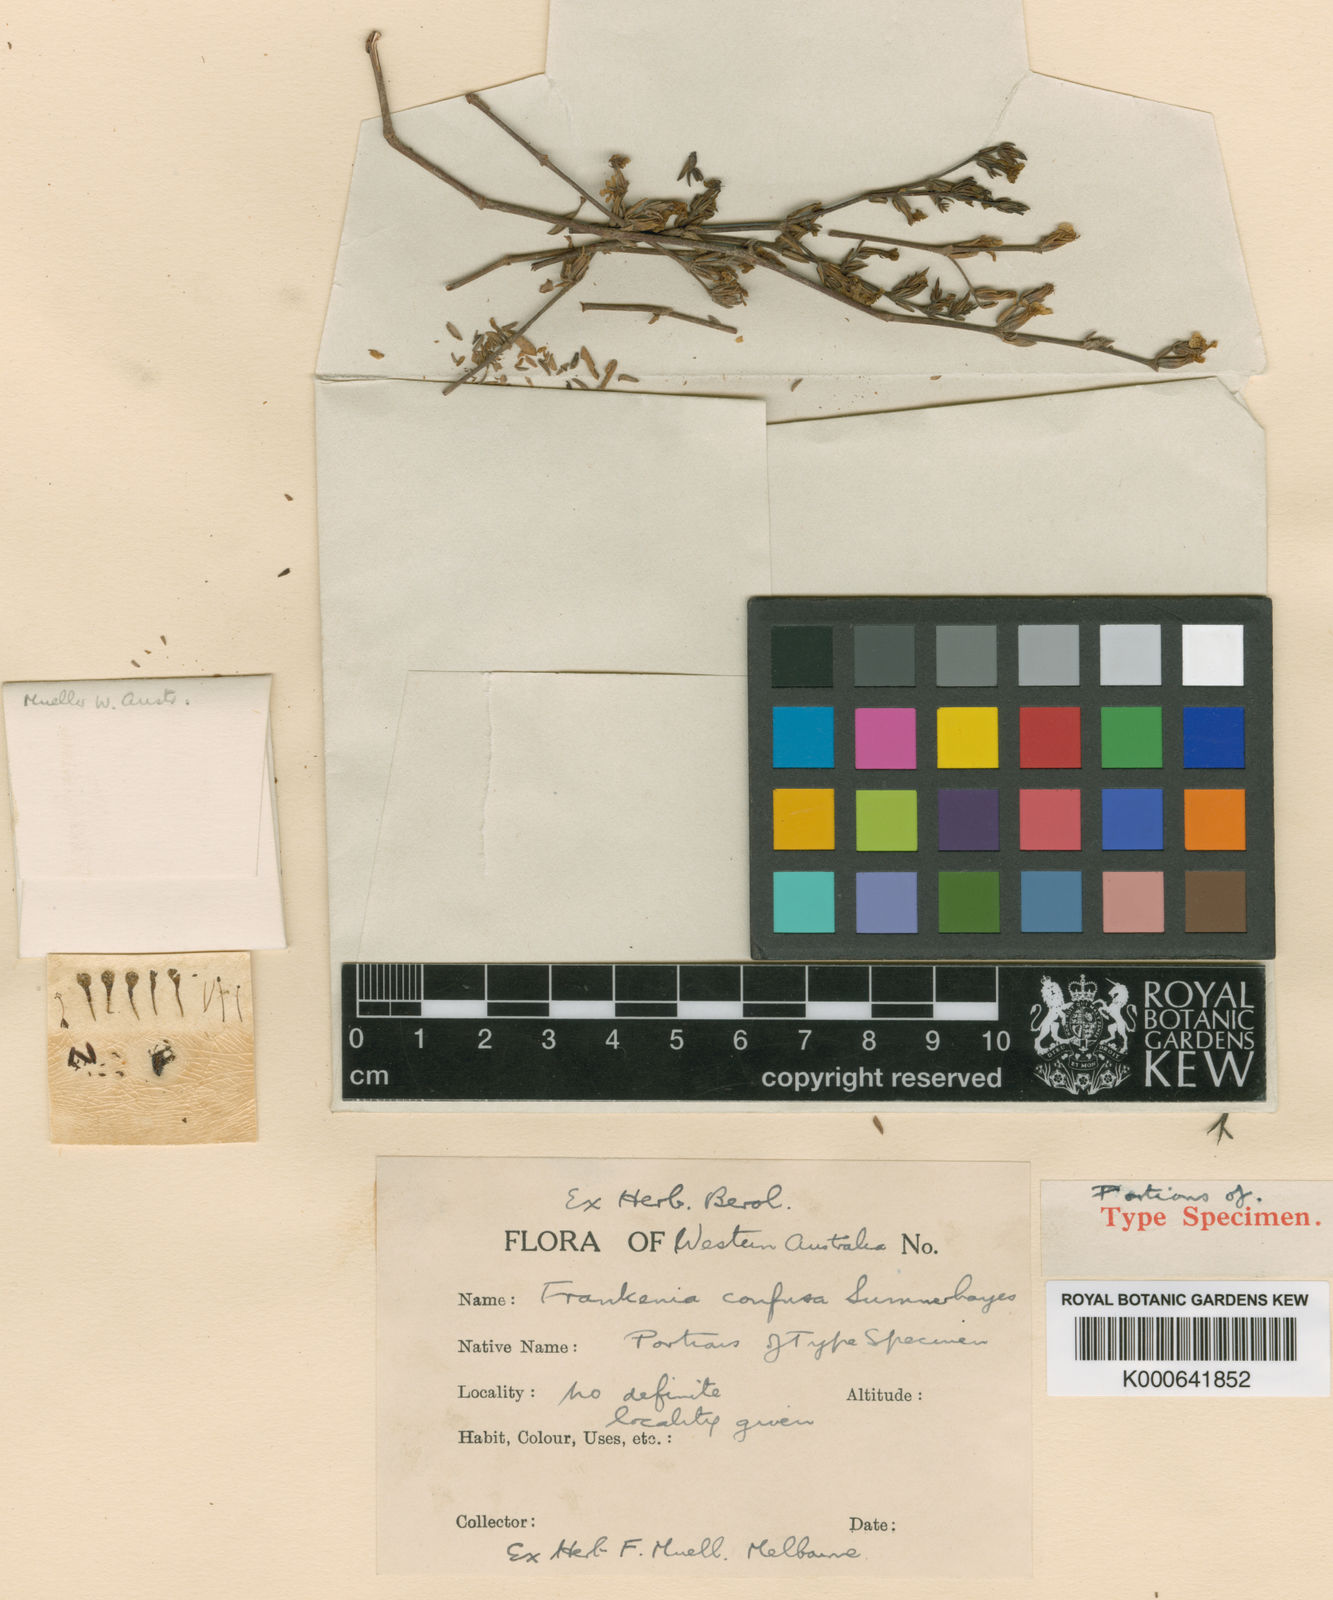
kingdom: Plantae
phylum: Tracheophyta
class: Magnoliopsida
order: Caryophyllales
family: Frankeniaceae
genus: Frankenia
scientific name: Frankenia confusa
